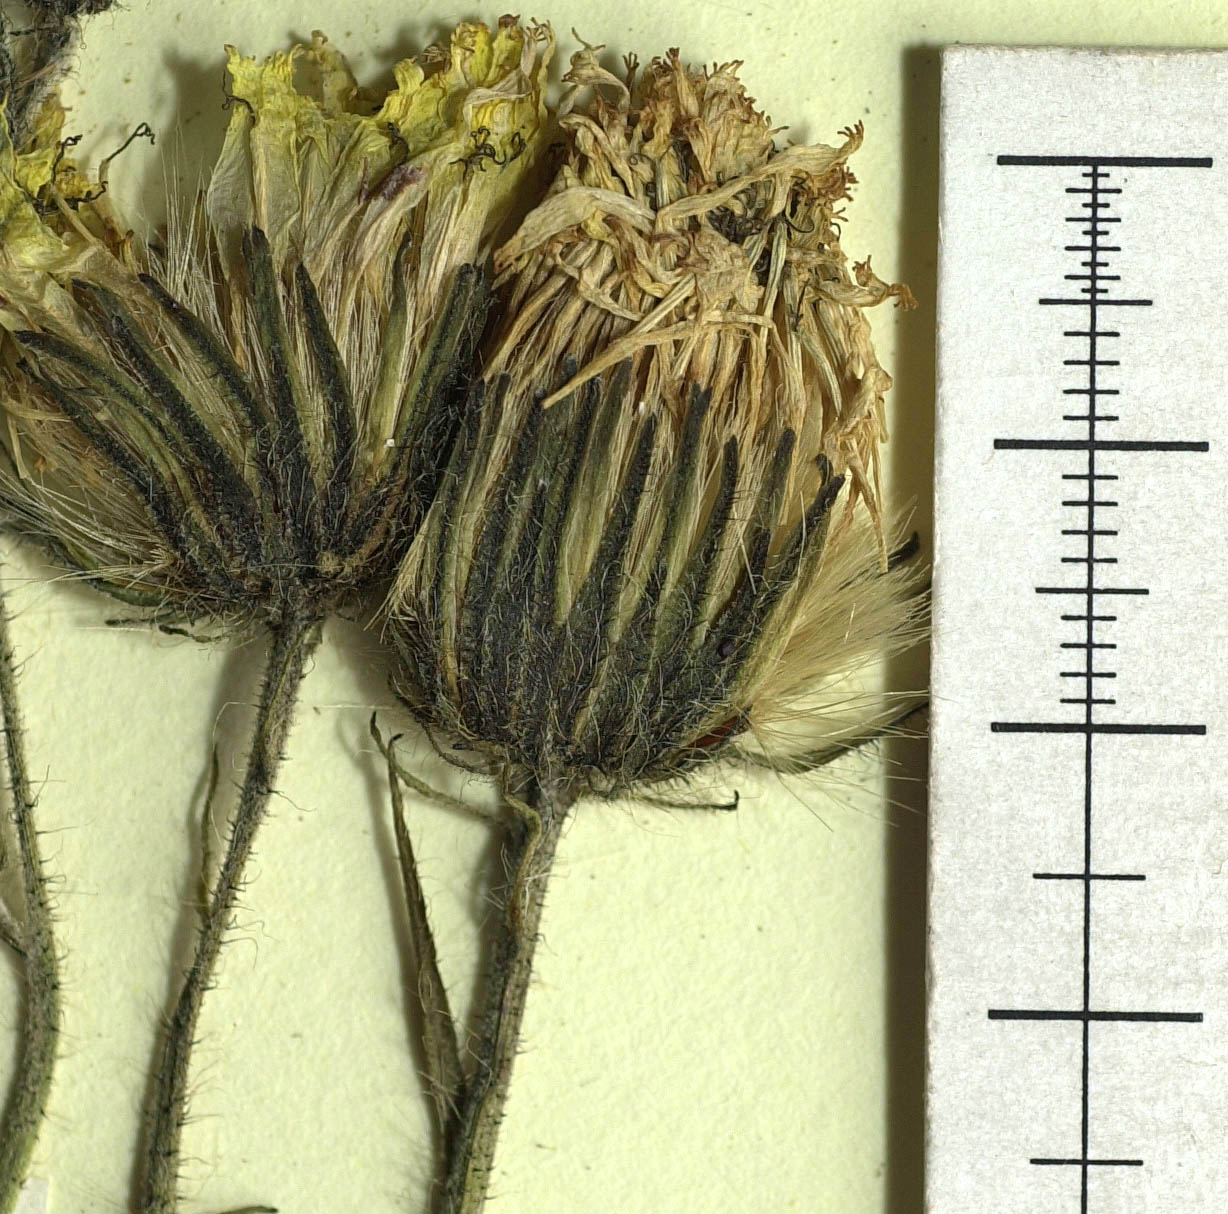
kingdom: Plantae
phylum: Tracheophyta
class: Magnoliopsida
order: Asterales
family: Asteraceae
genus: Hieracium
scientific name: Hieracium pujattii
